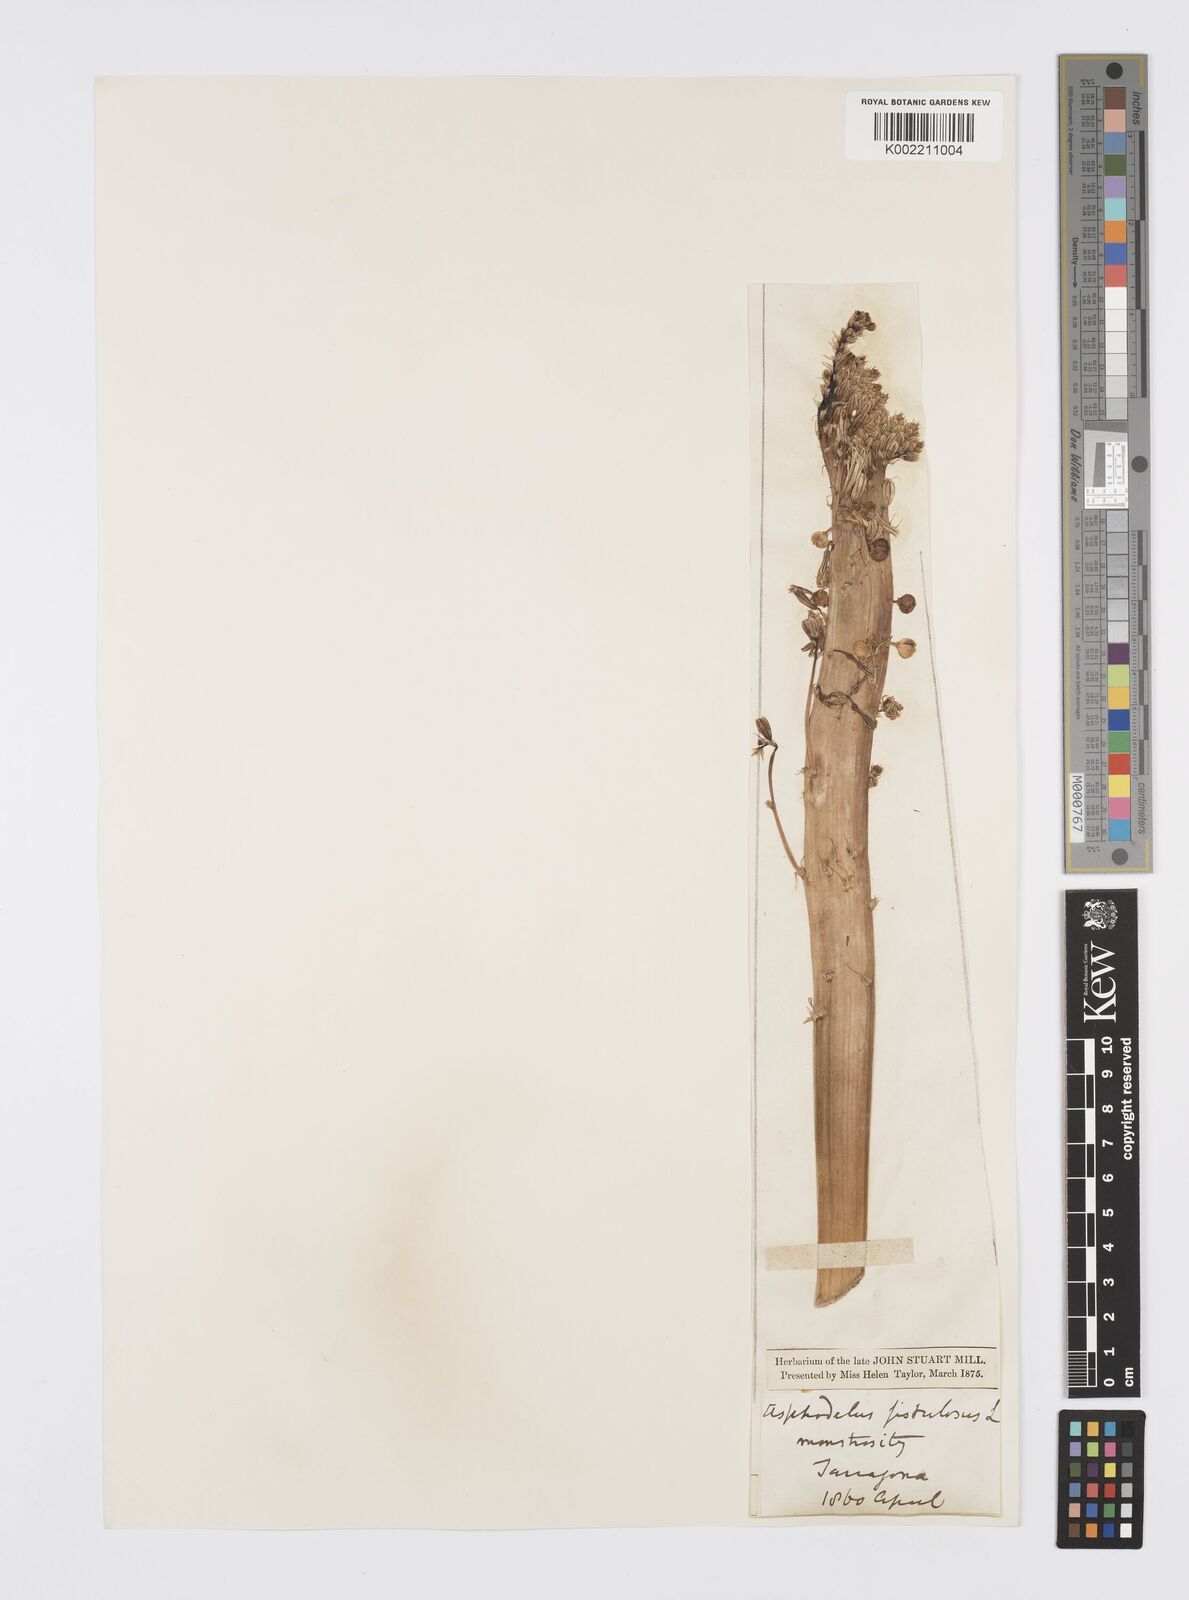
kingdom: Plantae
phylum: Tracheophyta
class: Liliopsida
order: Asparagales
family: Asphodelaceae
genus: Asphodelus
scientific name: Asphodelus fistulosus
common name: Onionweed
